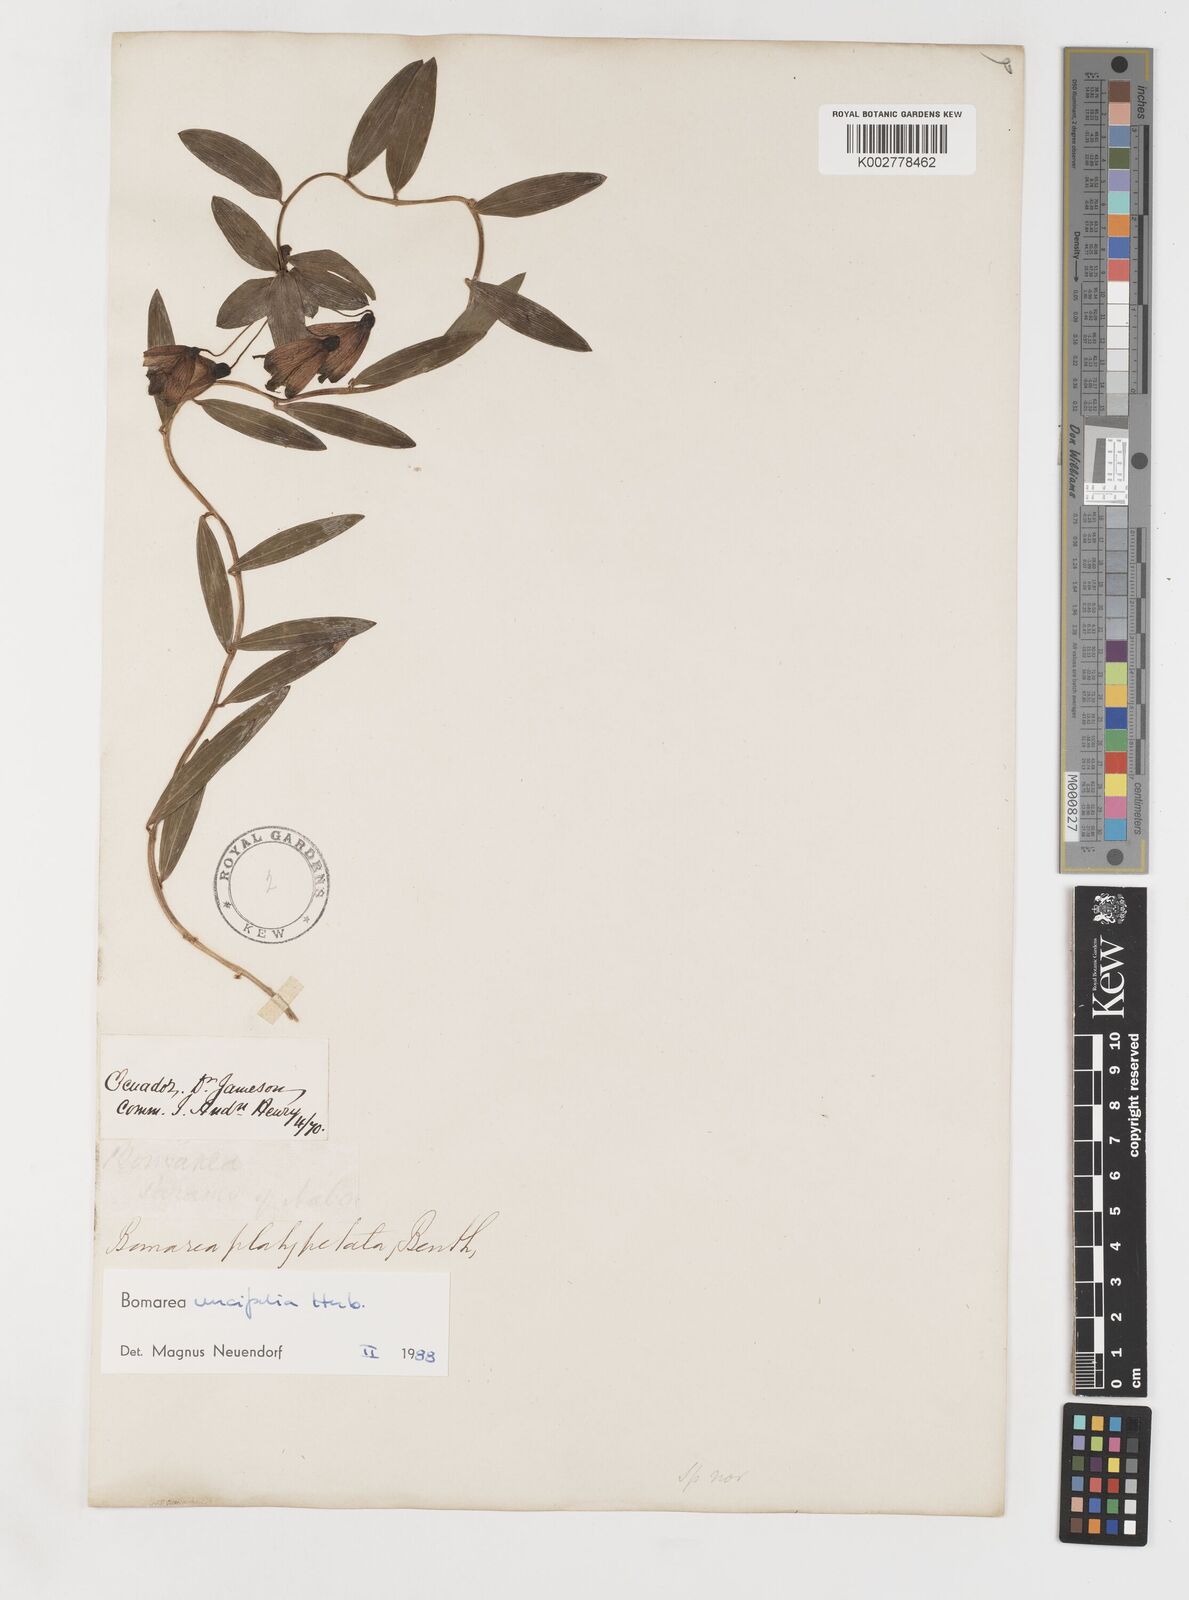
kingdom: Plantae
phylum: Tracheophyta
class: Liliopsida
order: Liliales
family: Alstroemeriaceae
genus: Bomarea
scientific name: Bomarea uncifolia
